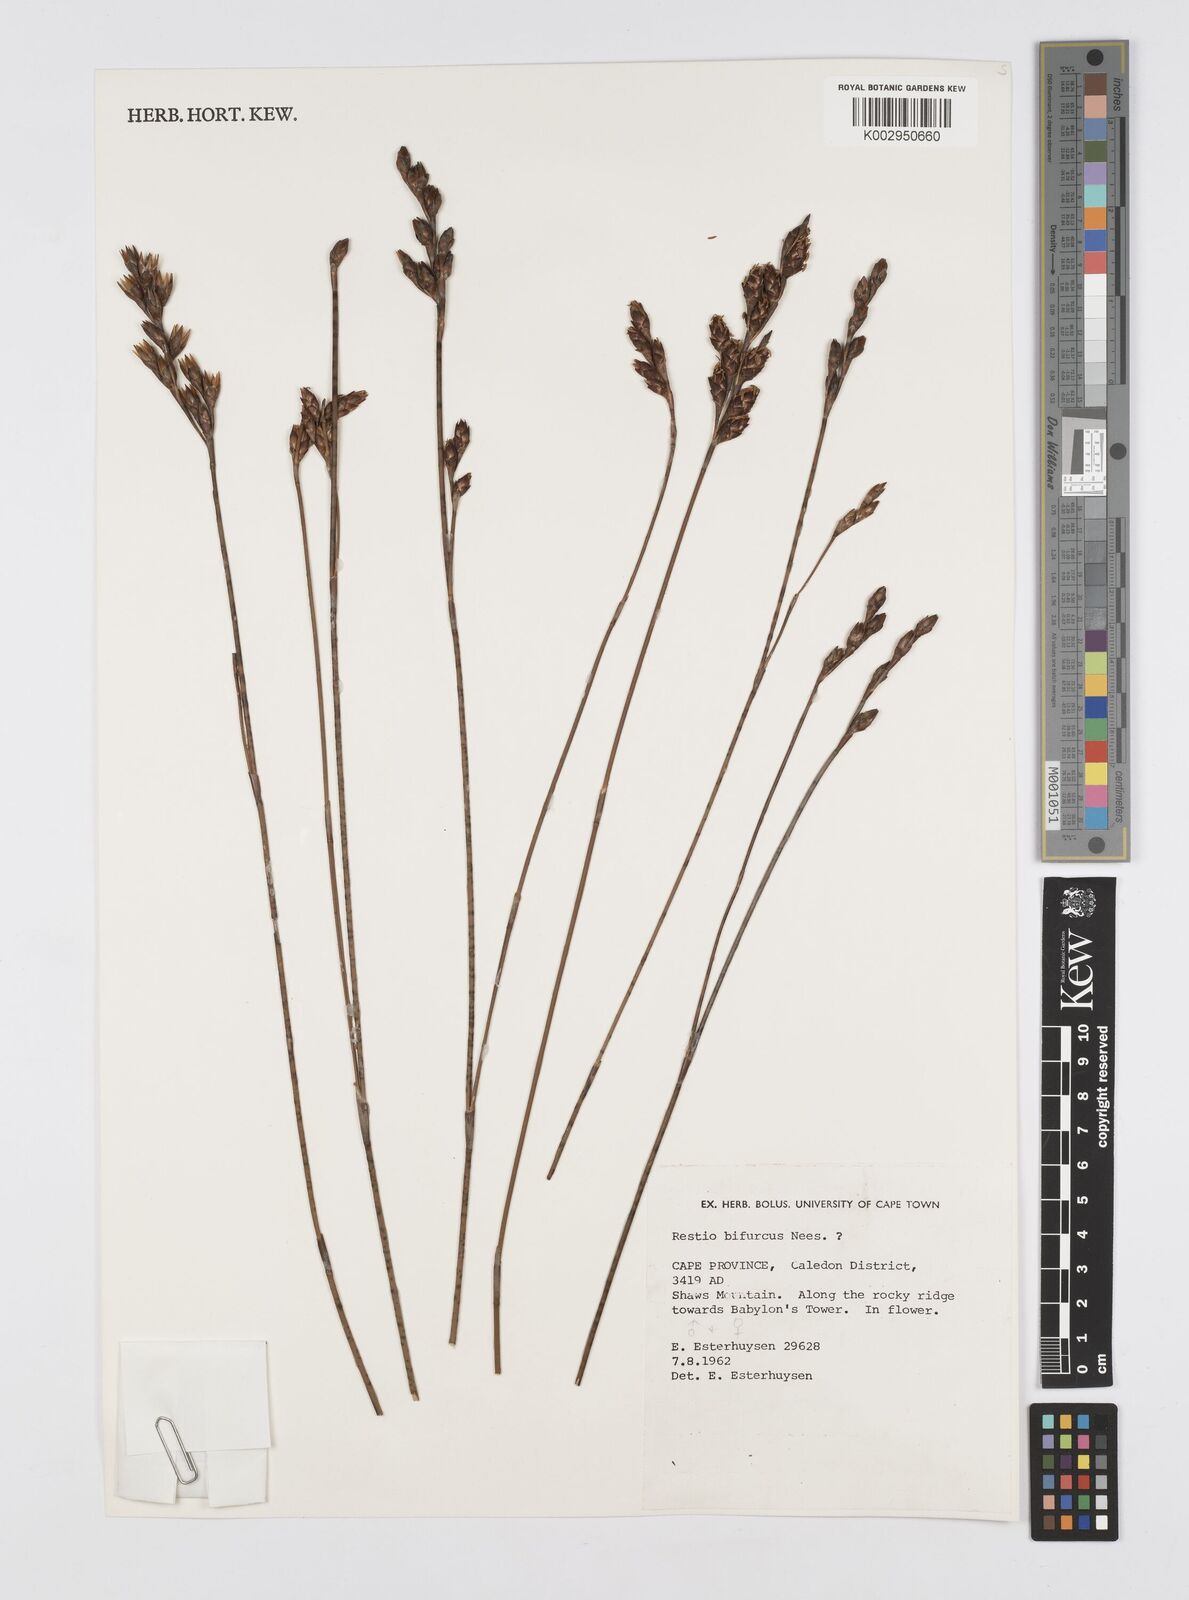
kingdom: Plantae
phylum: Tracheophyta
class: Liliopsida
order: Poales
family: Restionaceae
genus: Restio
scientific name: Restio bifurcus
